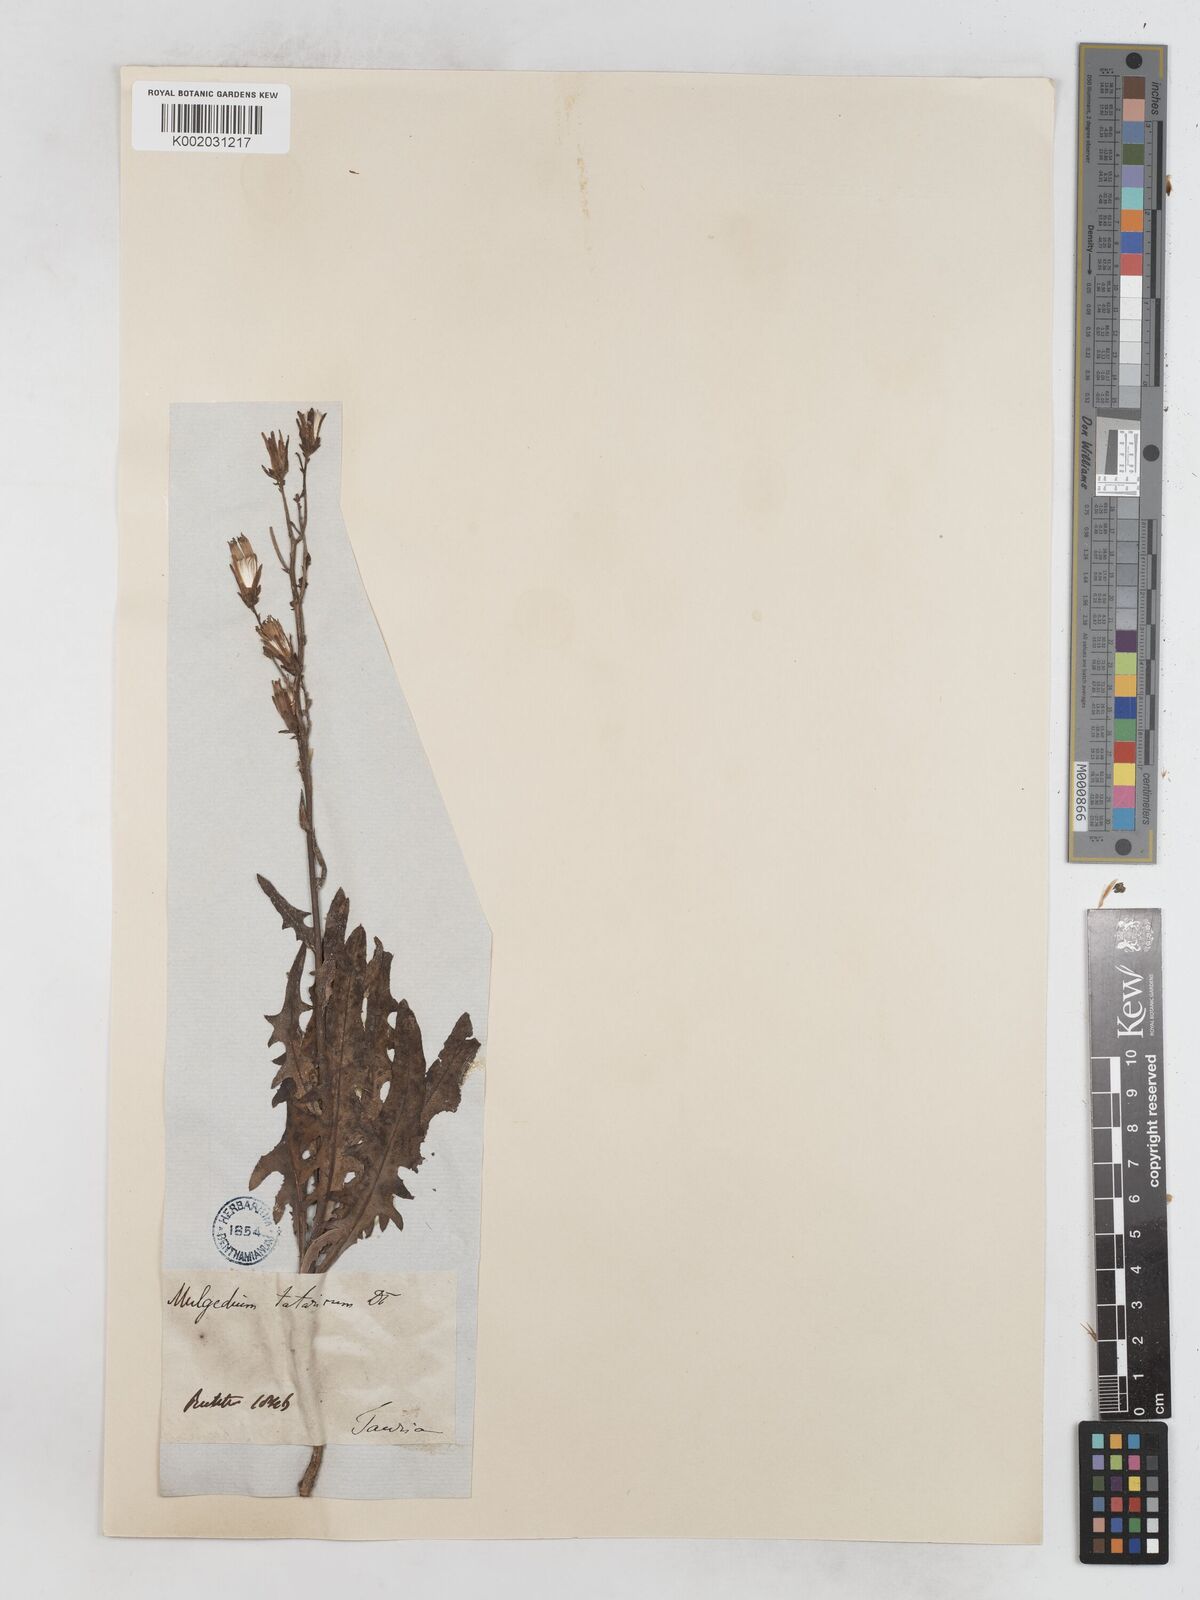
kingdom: Plantae
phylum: Tracheophyta
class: Magnoliopsida
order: Asterales
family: Asteraceae
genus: Lactuca
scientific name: Lactuca tatarica
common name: Blue lettuce
